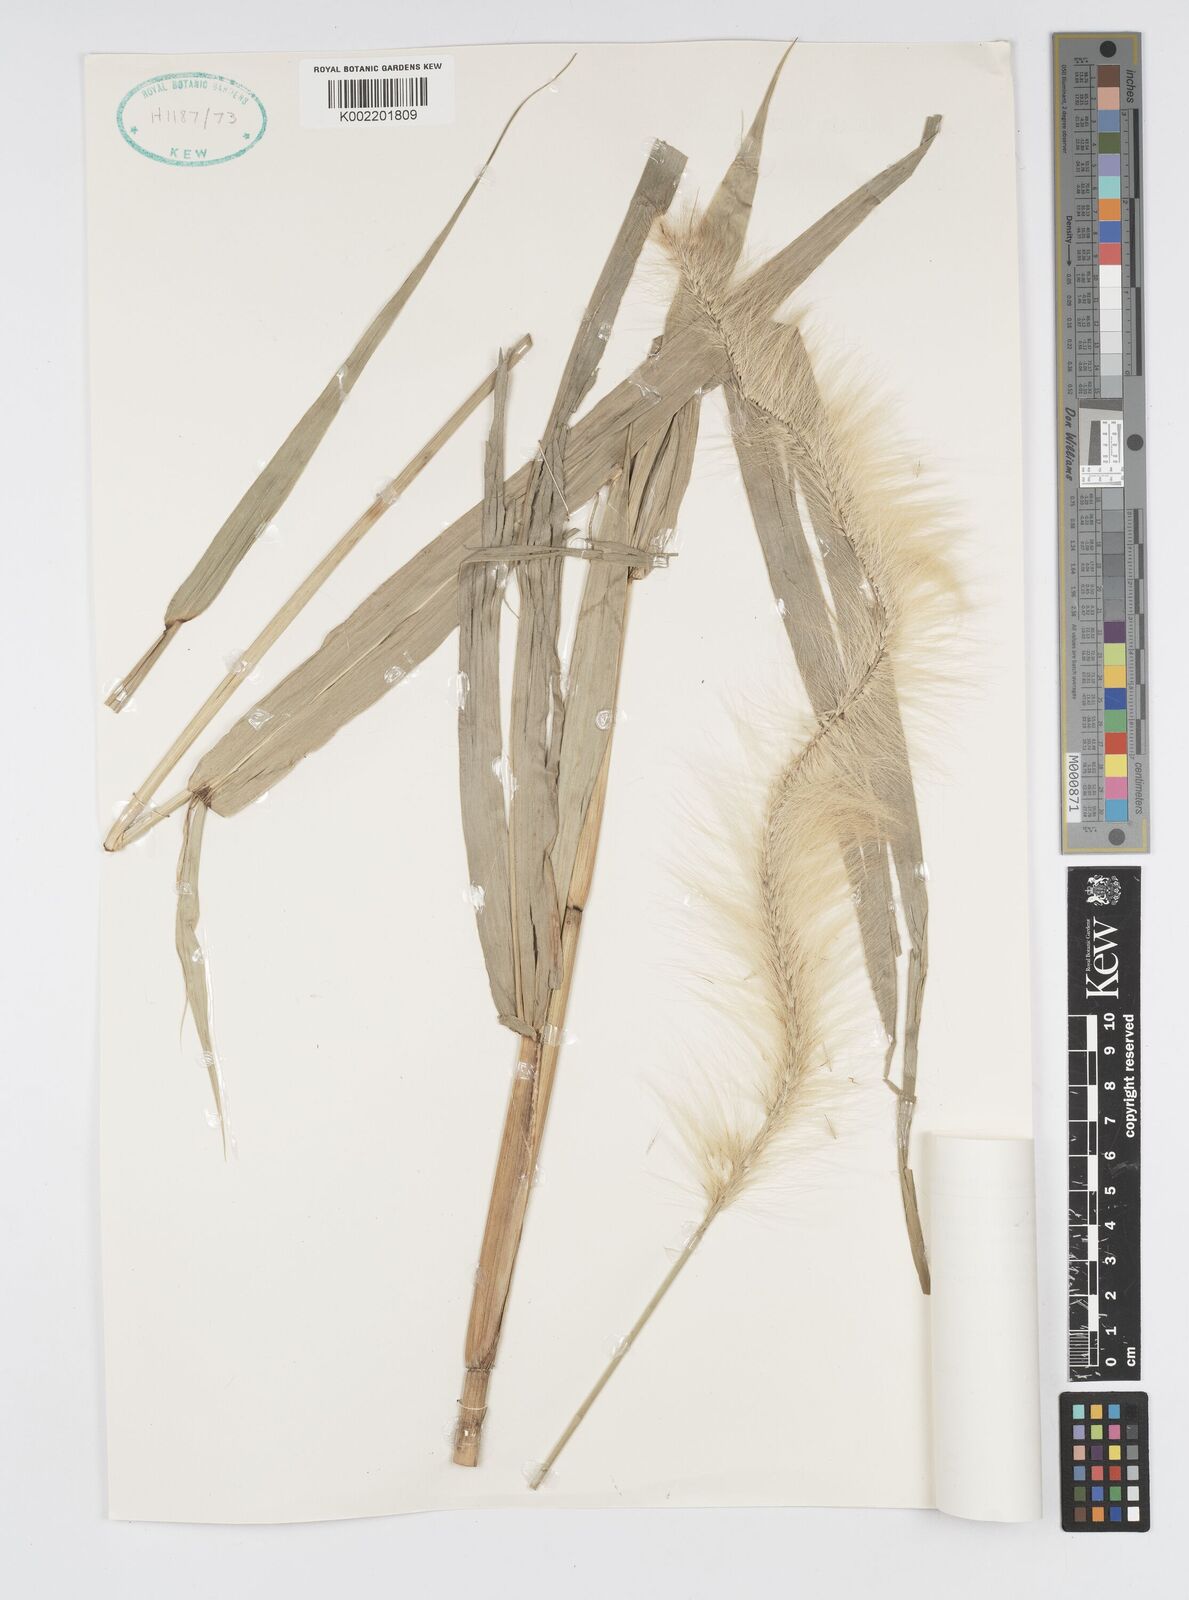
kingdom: Plantae
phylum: Tracheophyta
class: Liliopsida
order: Poales
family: Poaceae
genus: Cenchrus
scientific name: Cenchrus purpureus
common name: Elephant grass
